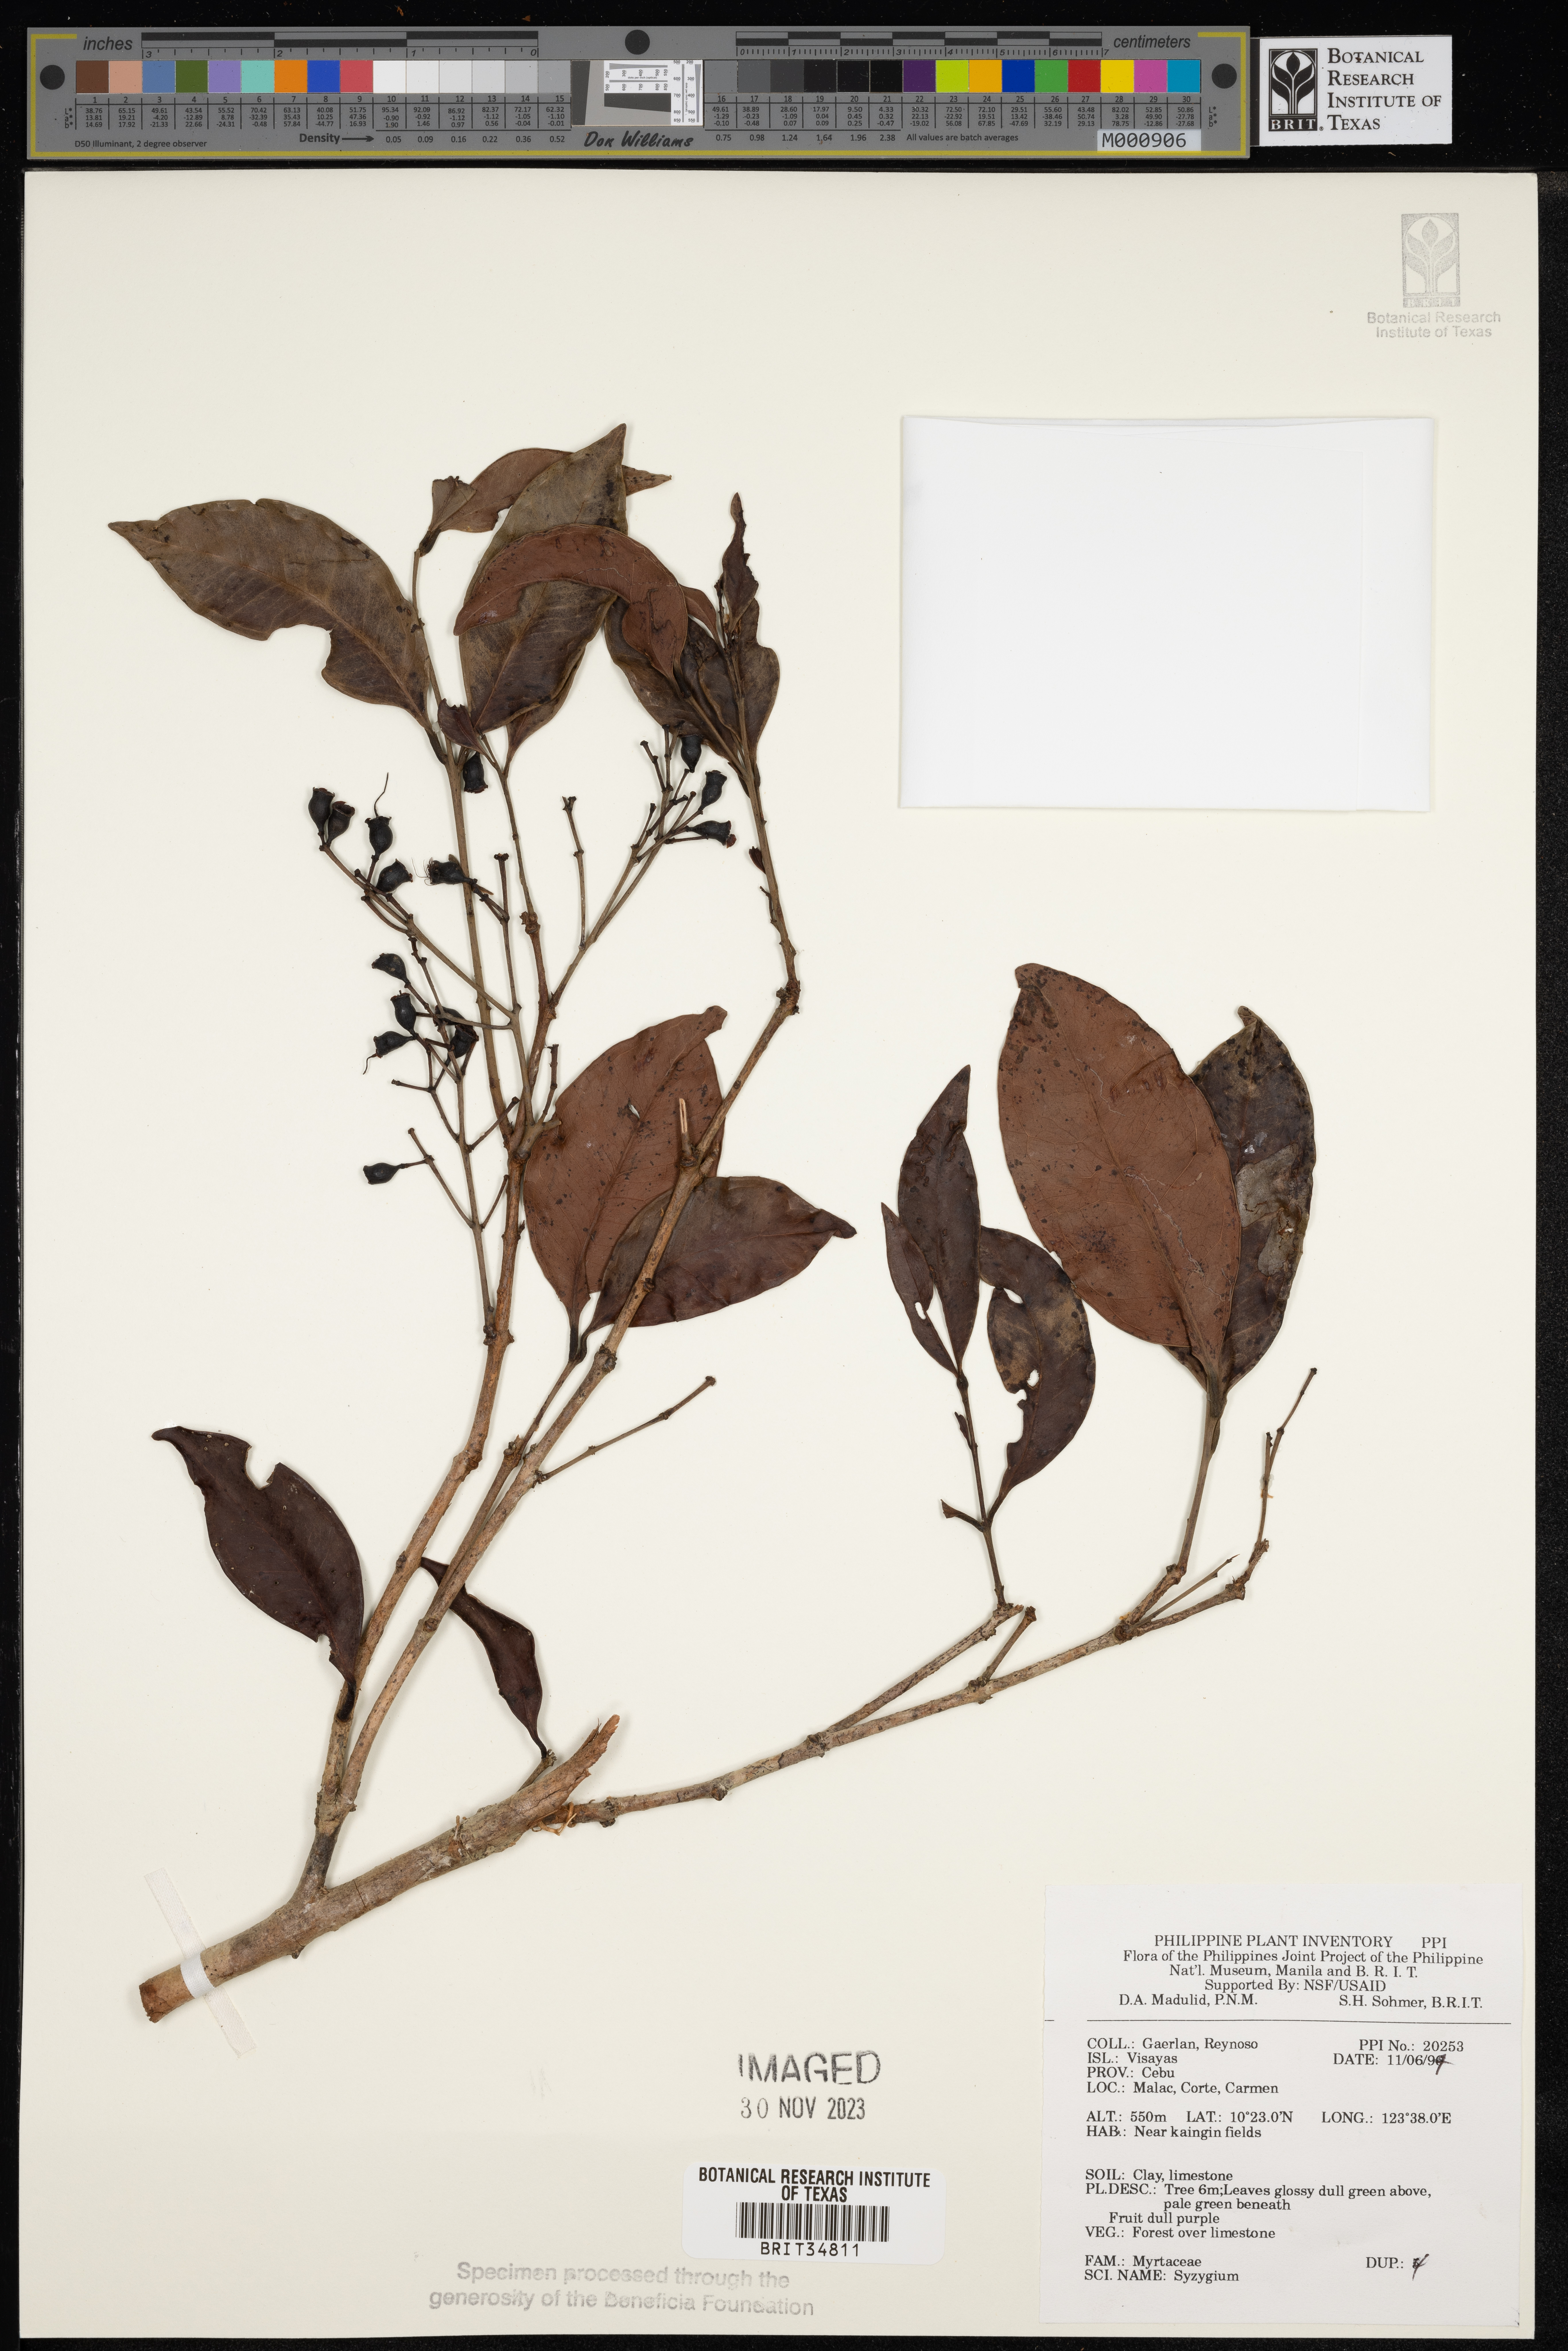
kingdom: Plantae
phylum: Tracheophyta
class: Magnoliopsida
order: Myrtales
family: Myrtaceae
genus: Syzygium
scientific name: Syzygium
